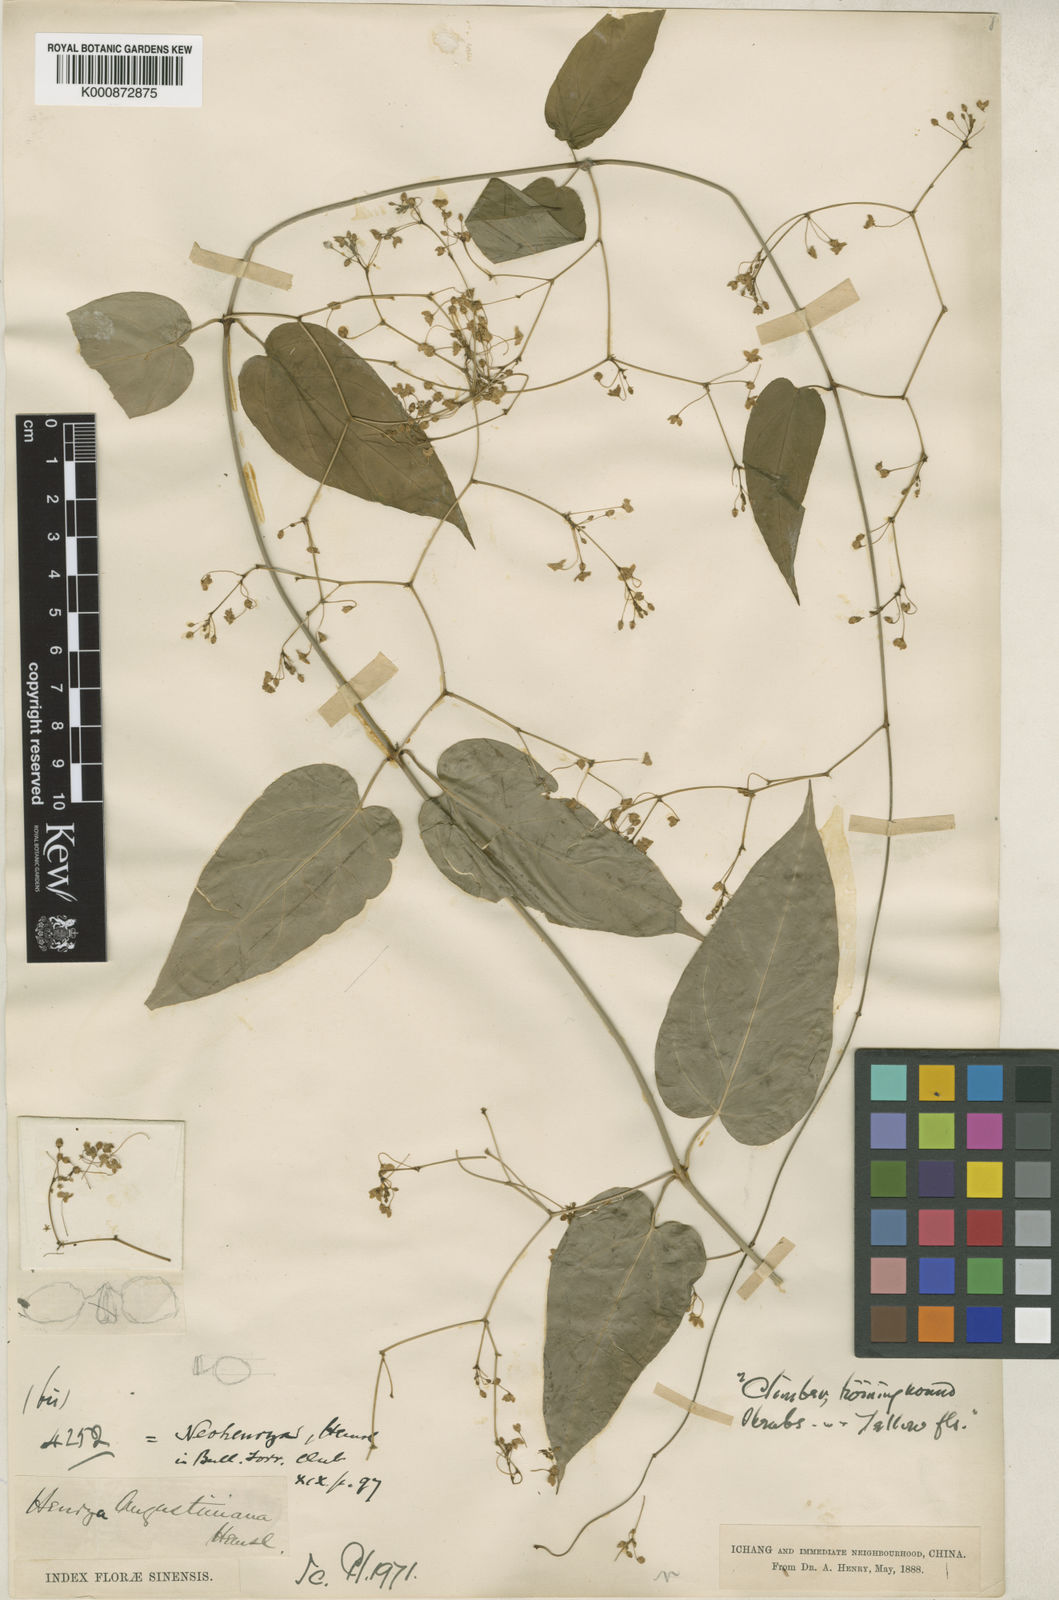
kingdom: Plantae
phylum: Tracheophyta
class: Magnoliopsida
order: Gentianales
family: Apocynaceae
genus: Vincetoxicum
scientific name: Vincetoxicum augustinianum
